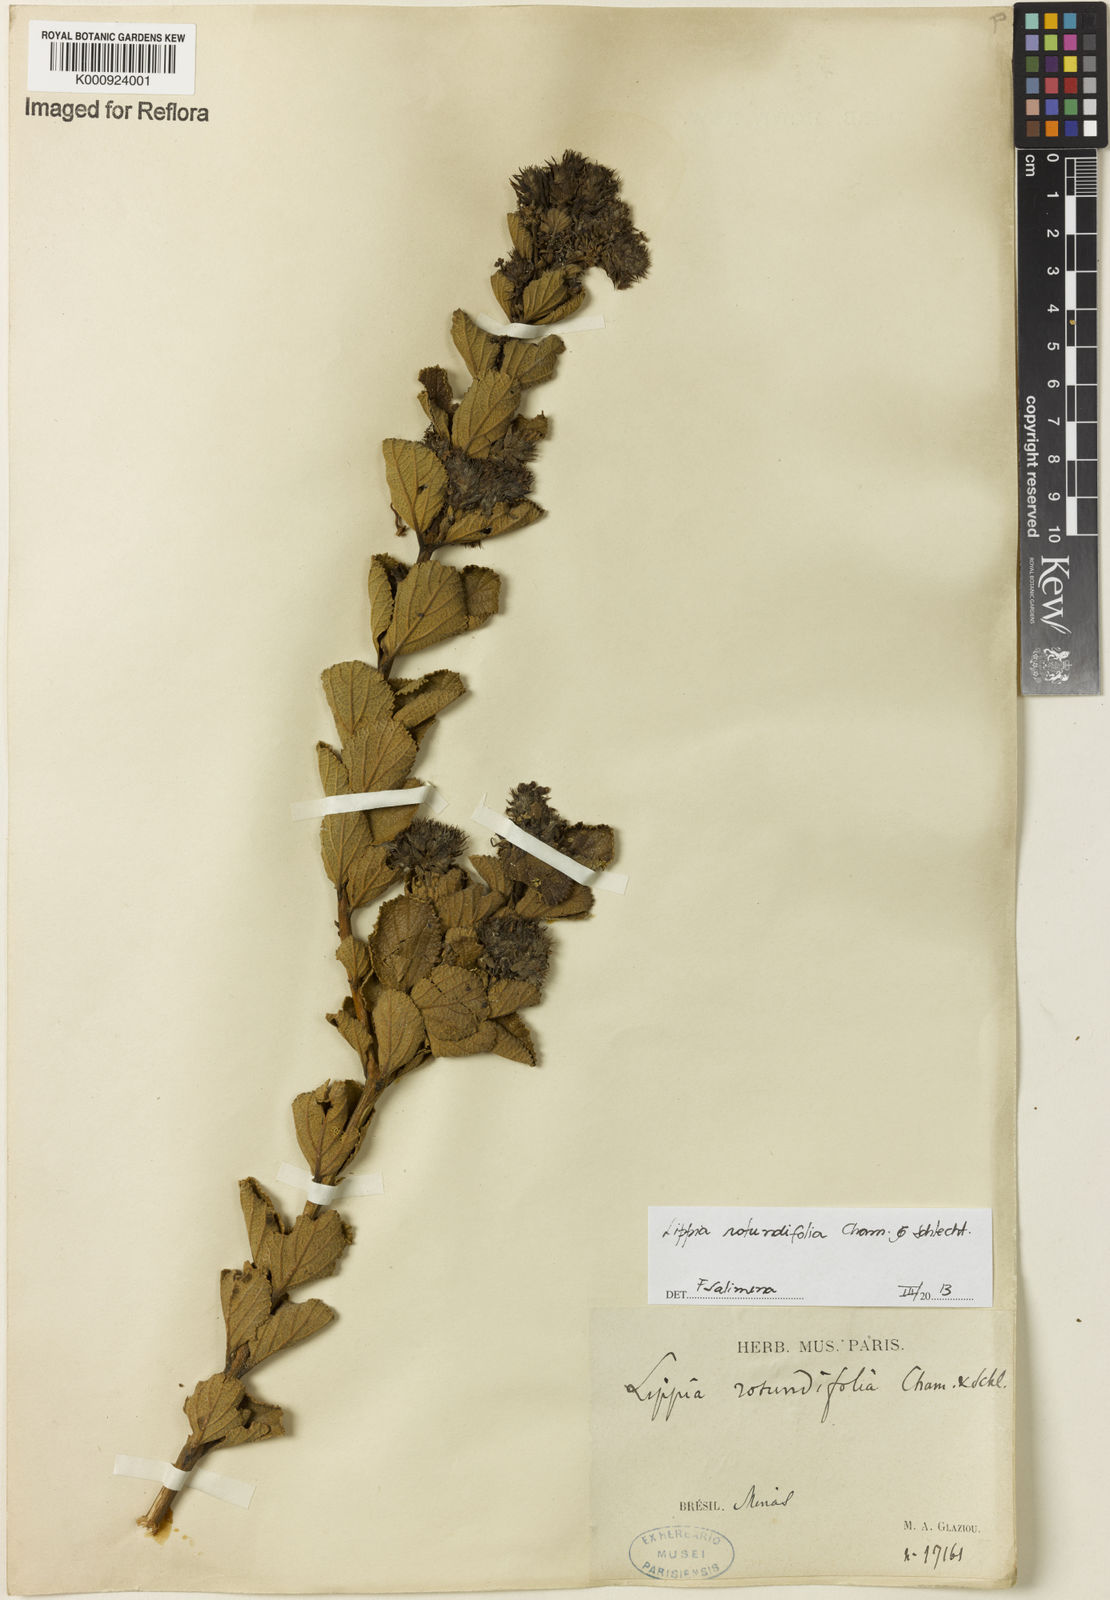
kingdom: Plantae
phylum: Tracheophyta
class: Magnoliopsida
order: Lamiales
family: Verbenaceae
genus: Lippia
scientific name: Lippia rotundifolia
